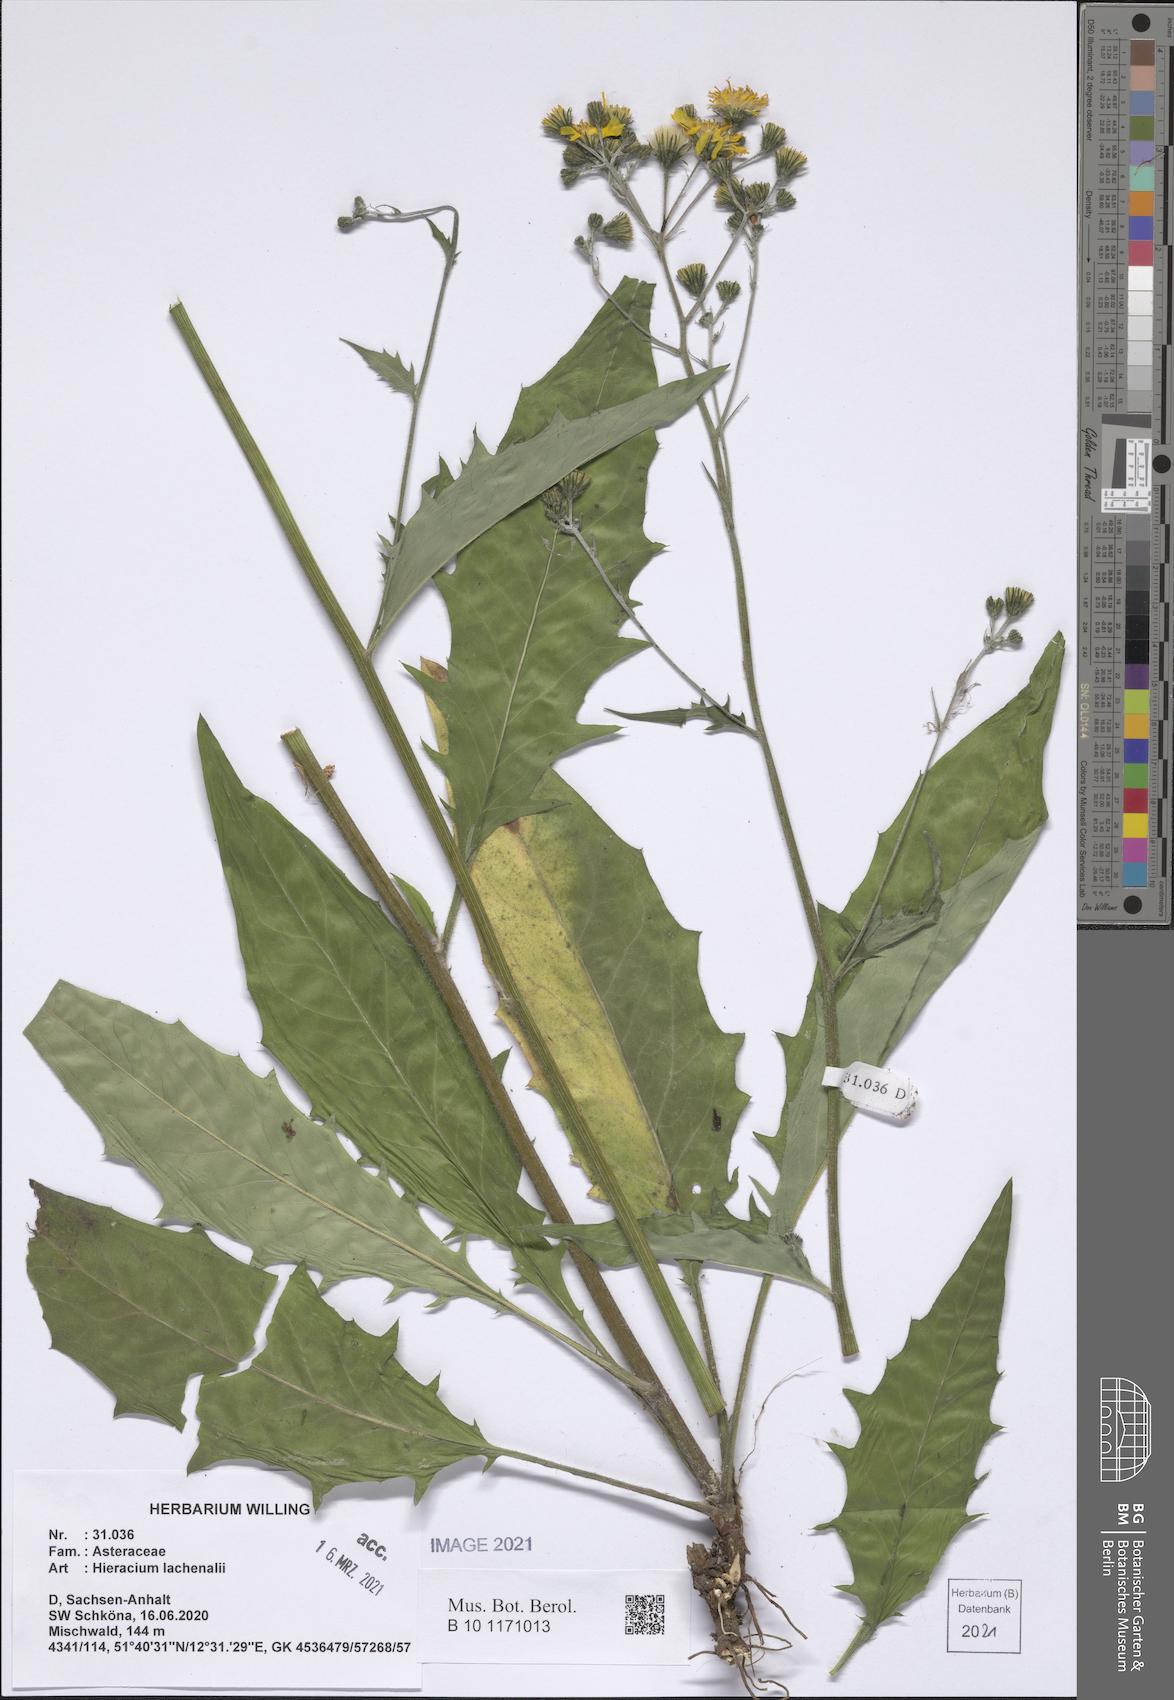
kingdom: Plantae
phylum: Tracheophyta
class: Magnoliopsida
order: Asterales
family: Asteraceae
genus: Hieracium
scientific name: Hieracium lachenalii
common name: Common hawkweed
